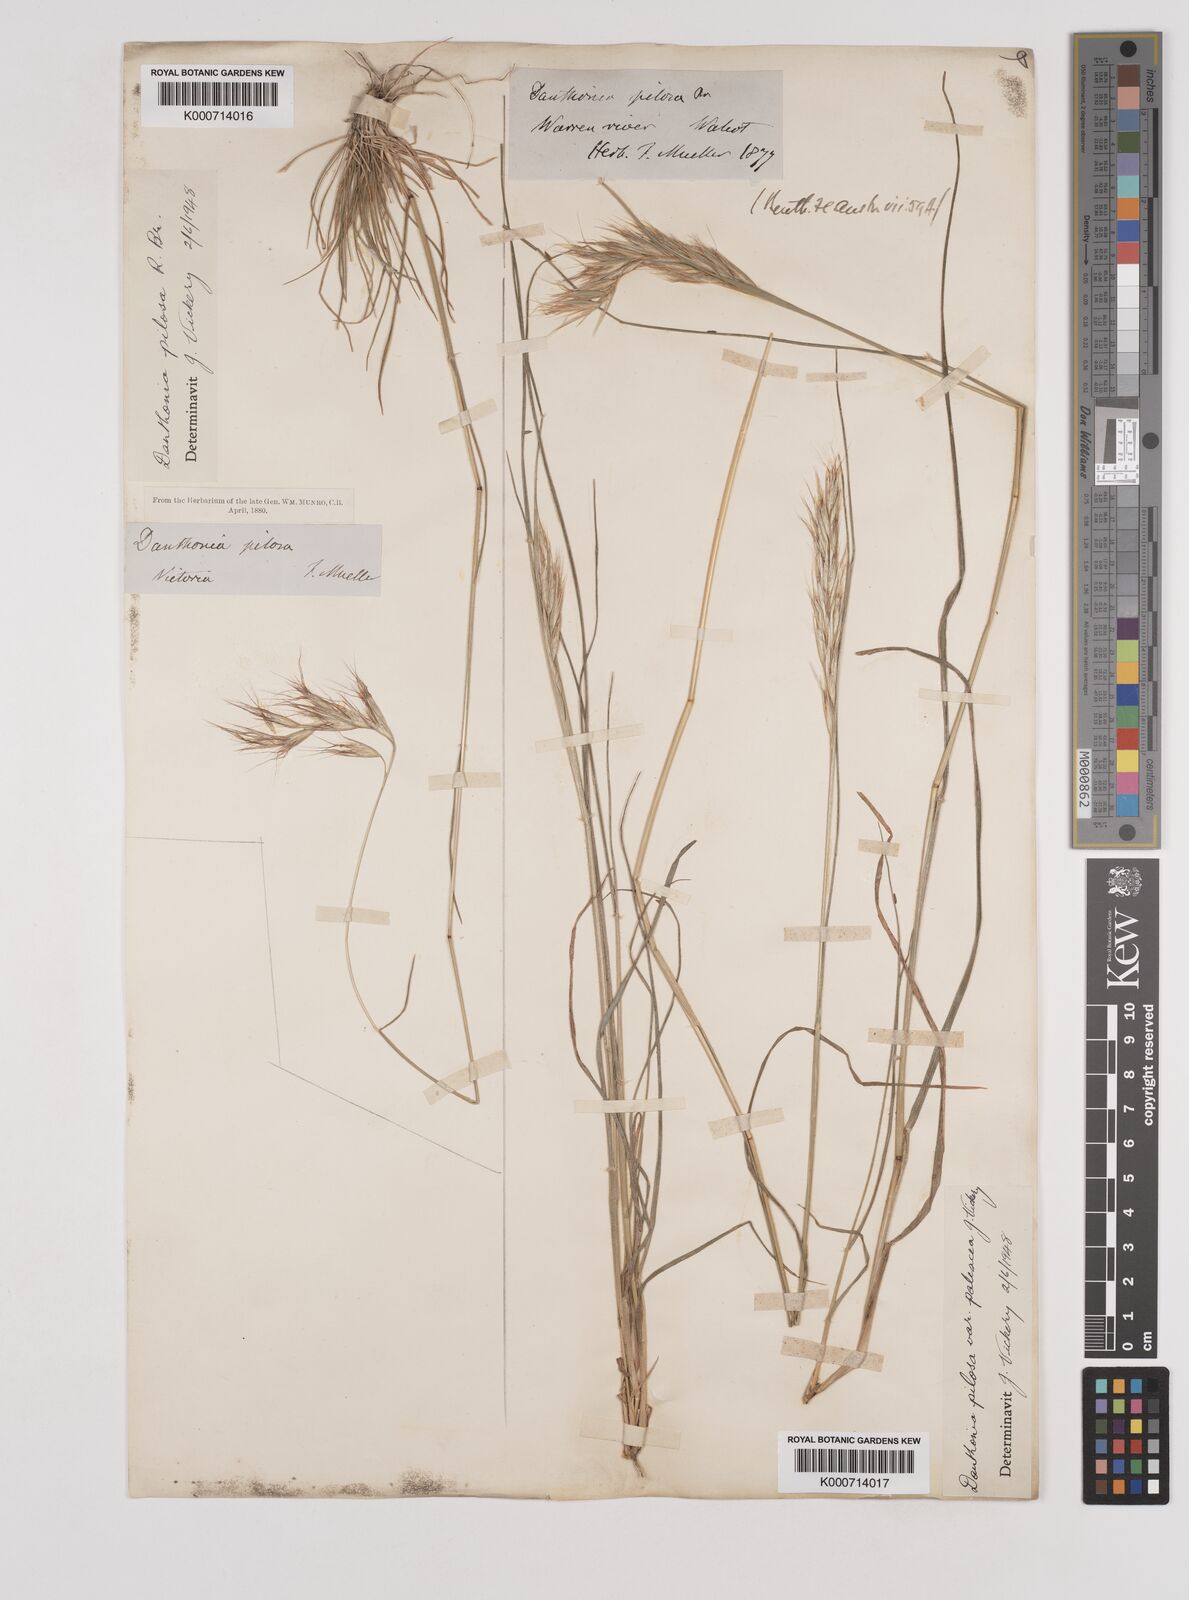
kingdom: Plantae
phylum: Tracheophyta
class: Liliopsida
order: Poales
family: Poaceae
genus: Rytidosperma
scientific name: Rytidosperma pilosum
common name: Hairy wallaby grass
